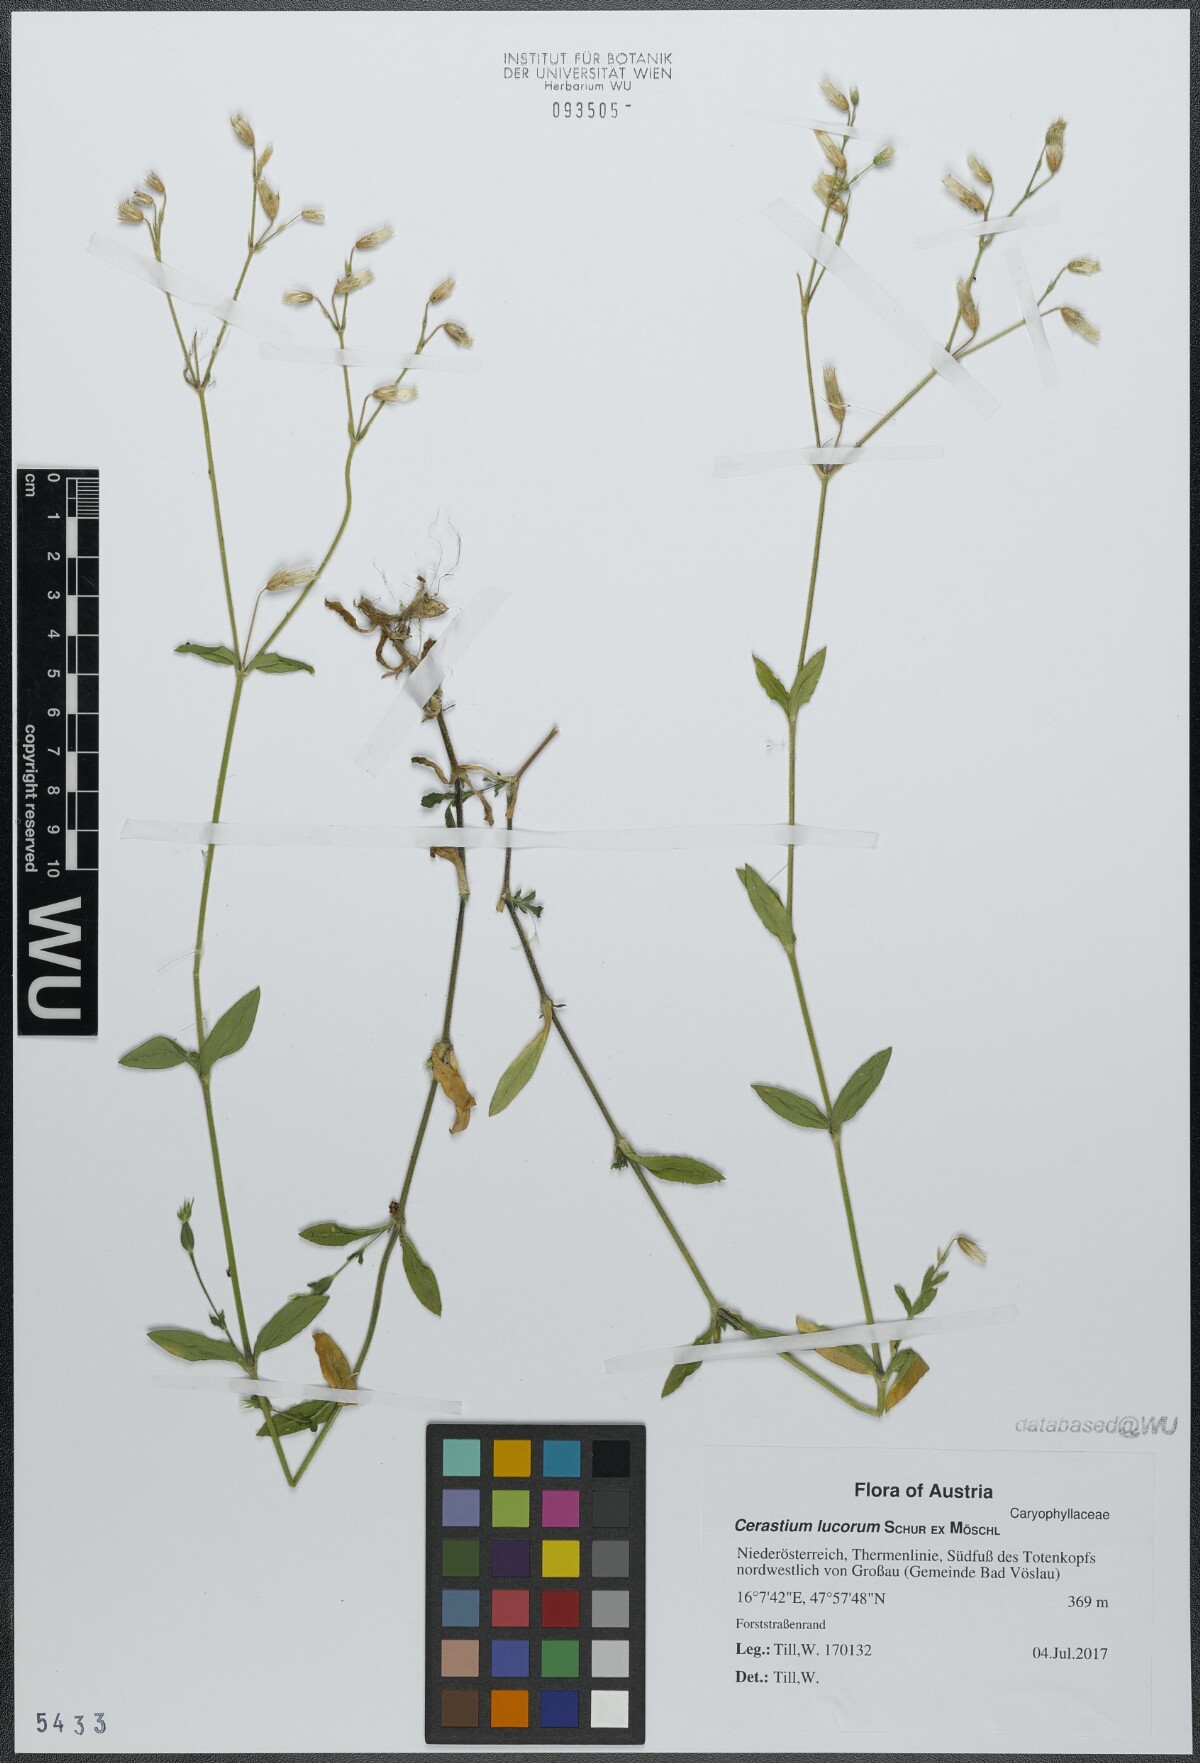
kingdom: Plantae
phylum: Tracheophyta
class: Magnoliopsida
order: Caryophyllales
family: Caryophyllaceae
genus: Cerastium
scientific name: Cerastium lucorum
